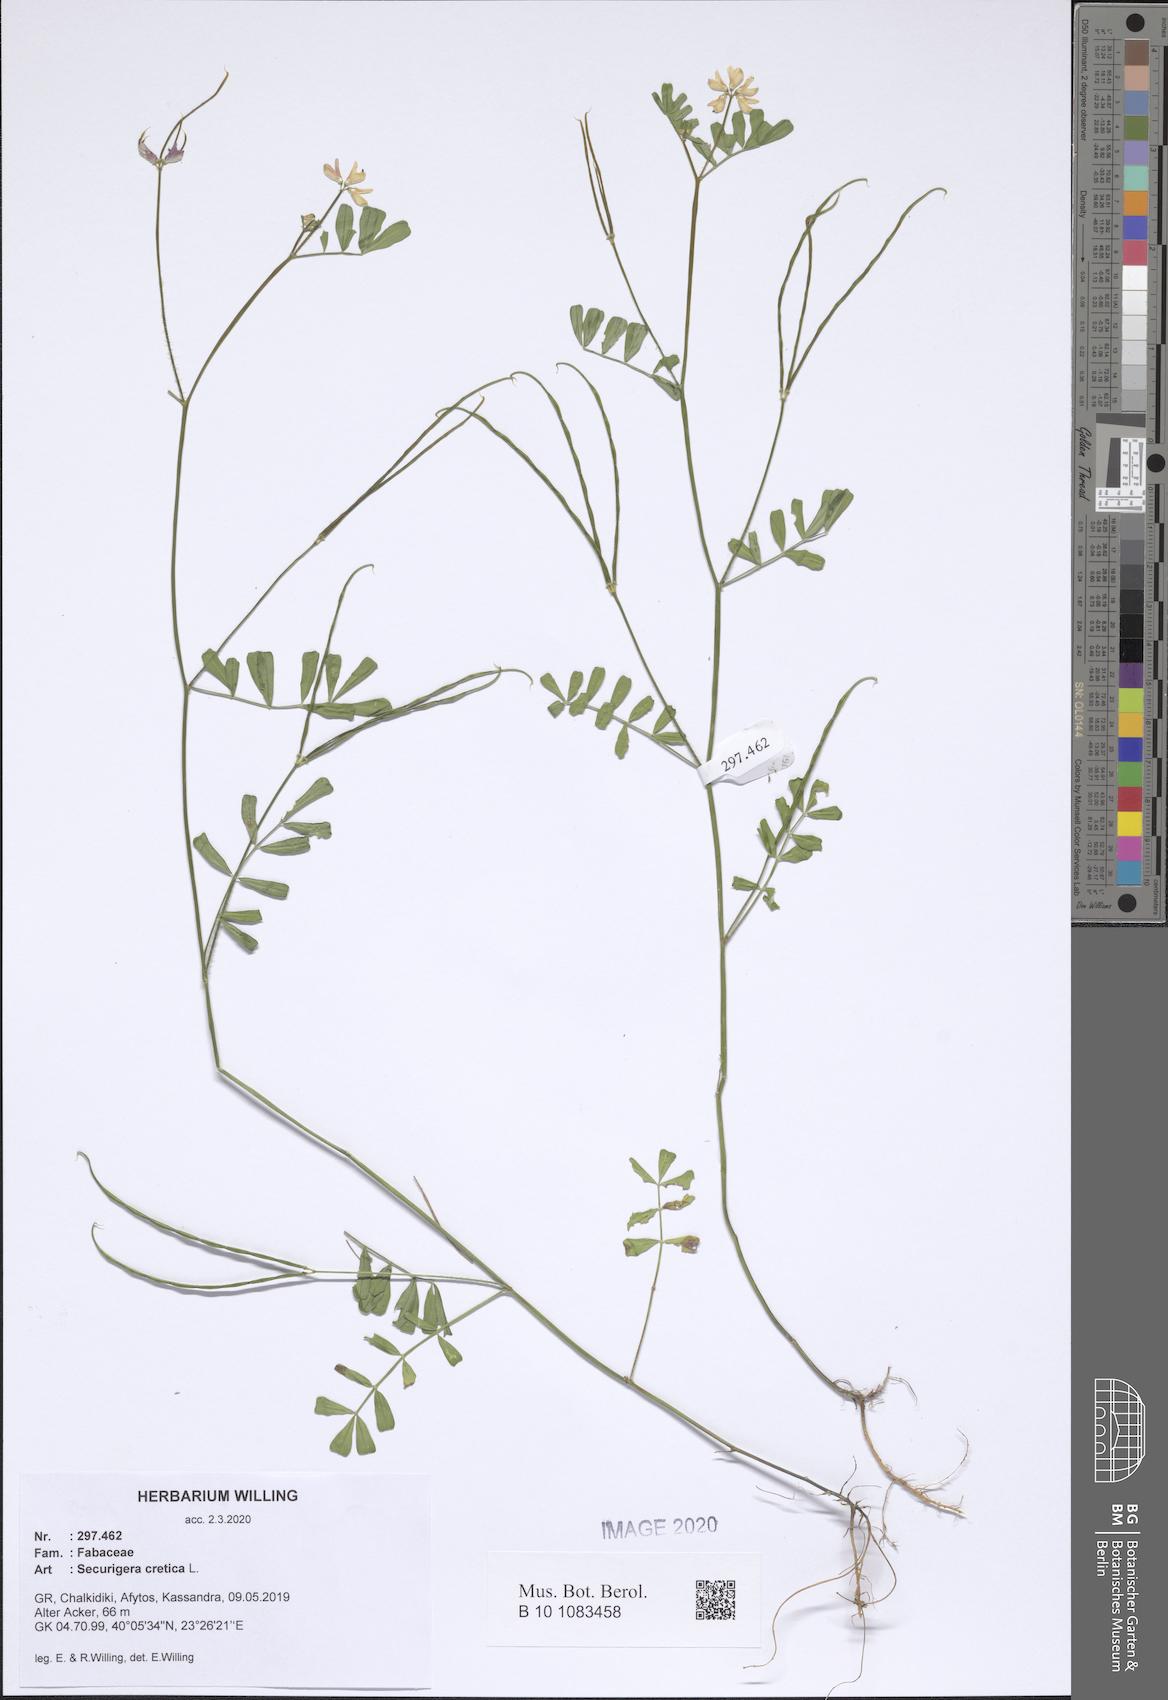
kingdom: Plantae
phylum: Tracheophyta
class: Magnoliopsida
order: Fabales
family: Fabaceae
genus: Coronilla
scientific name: Coronilla cretica
